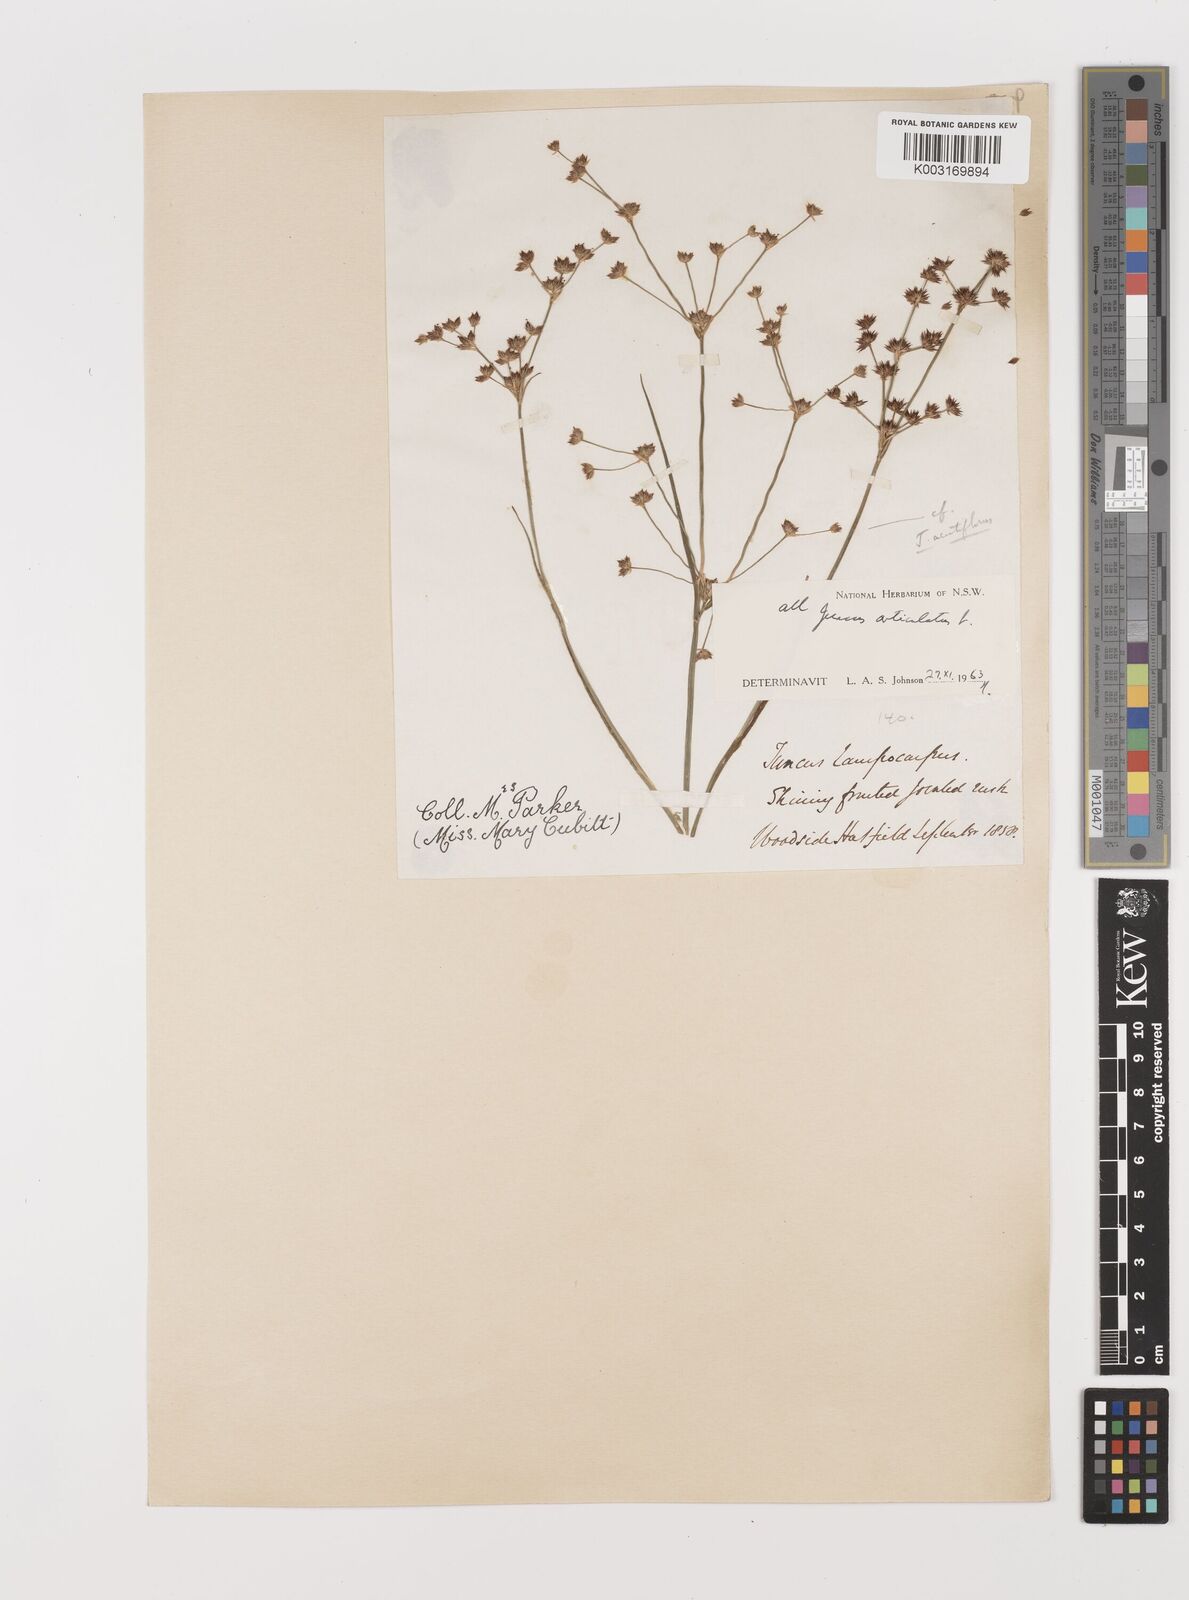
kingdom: Plantae
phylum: Tracheophyta
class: Liliopsida
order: Poales
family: Juncaceae
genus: Juncus
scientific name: Juncus articulatus
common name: Jointed rush
